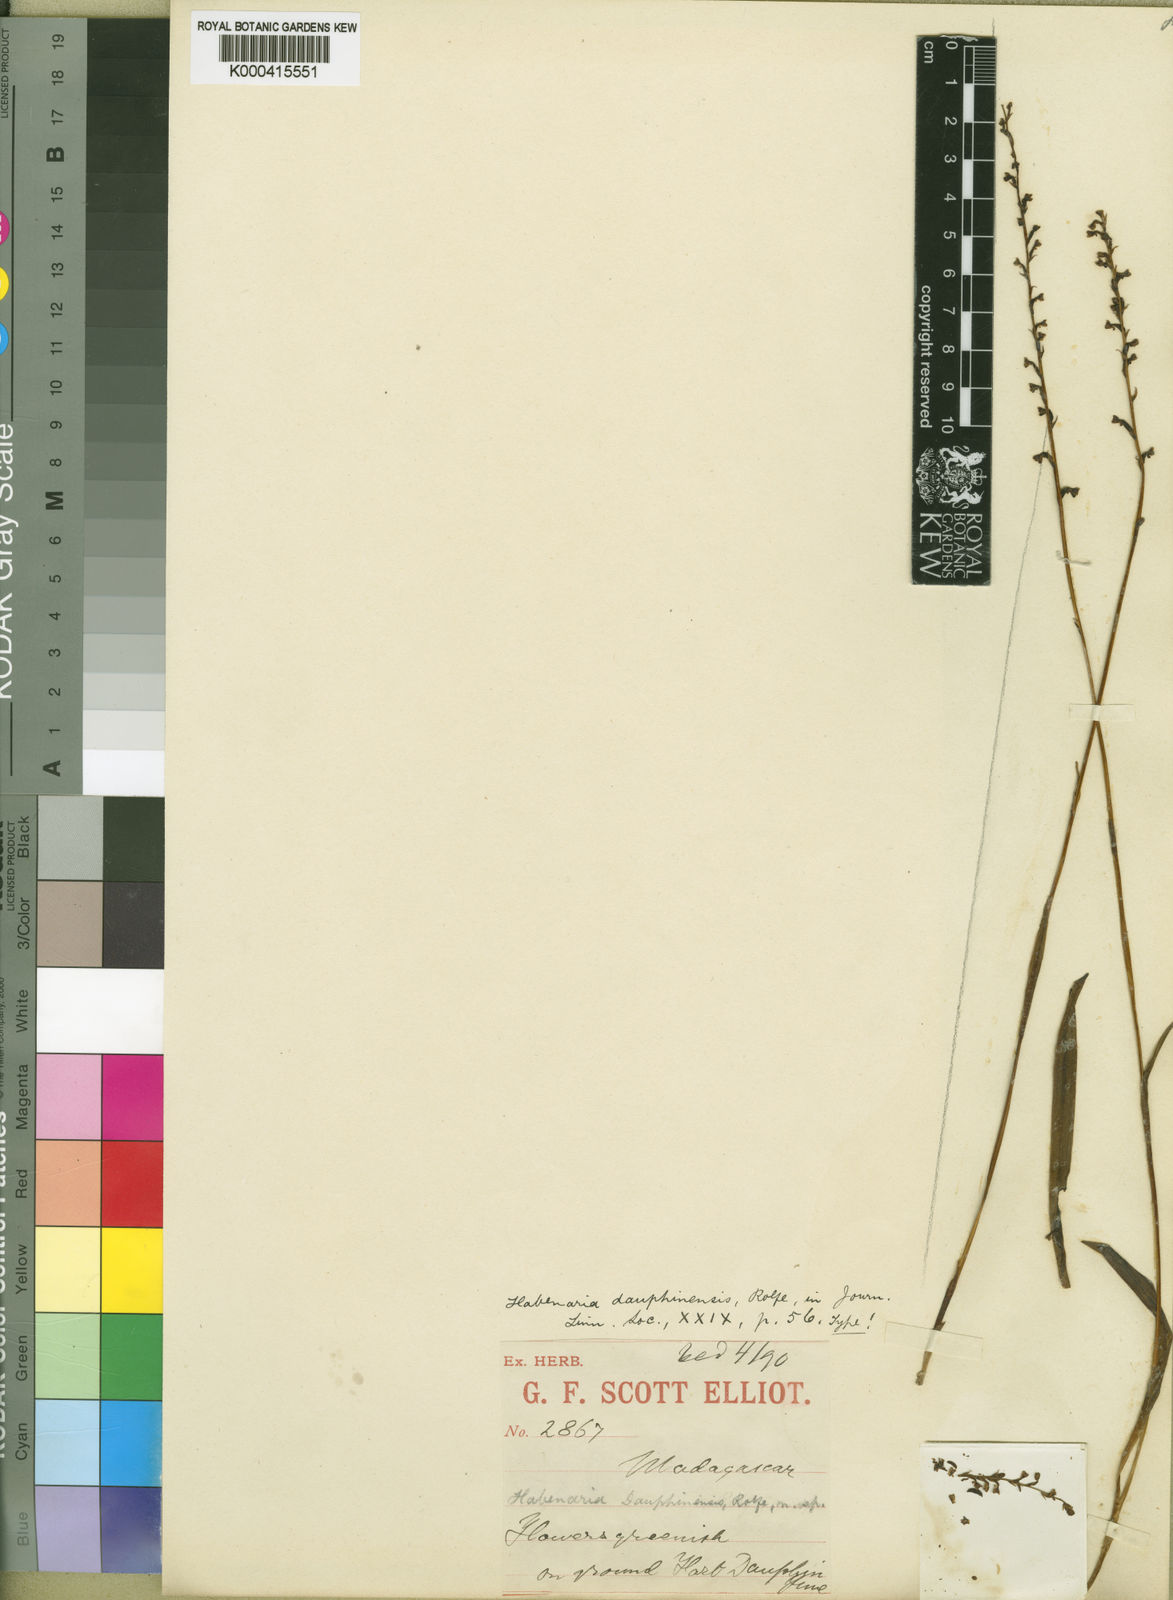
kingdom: Plantae
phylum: Tracheophyta
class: Liliopsida
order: Asparagales
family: Orchidaceae
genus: Benthamia
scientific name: Benthamia dauphinensis
